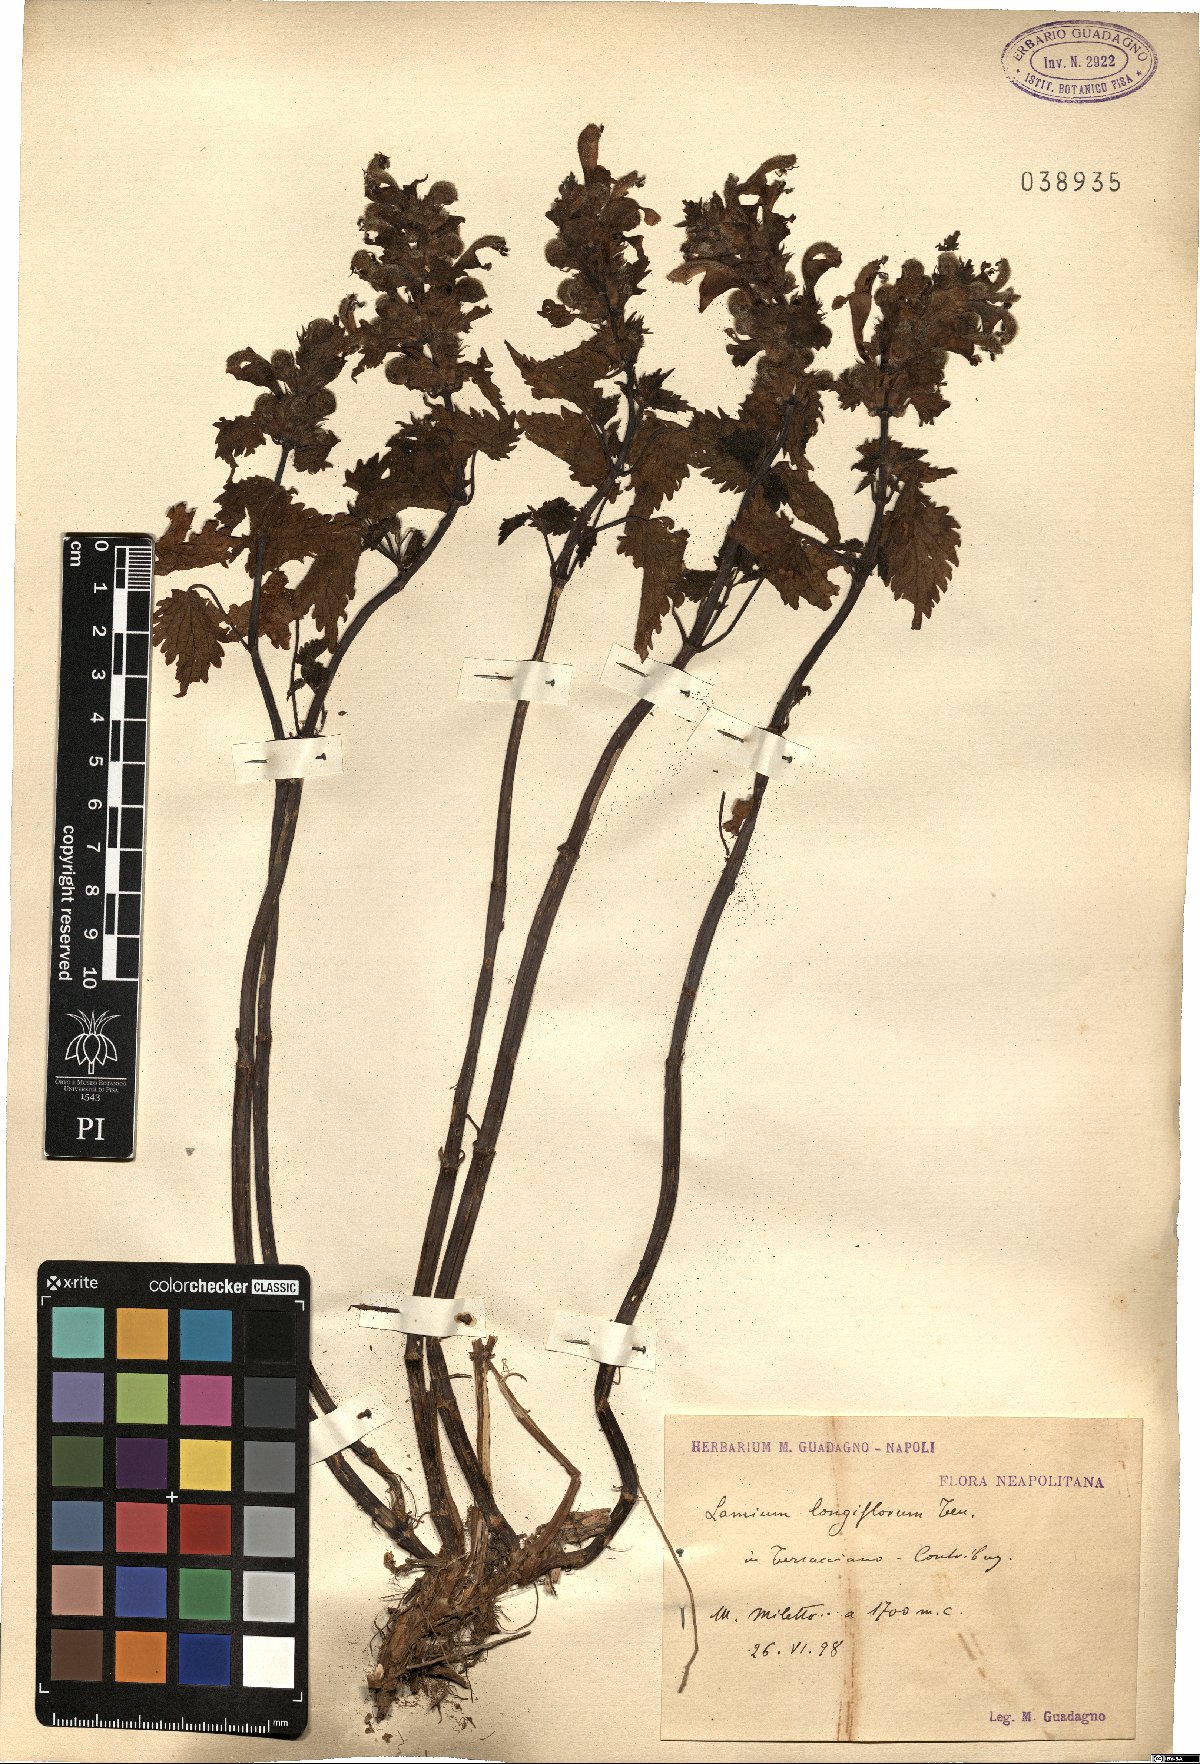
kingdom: Plantae
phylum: Tracheophyta
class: Magnoliopsida
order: Lamiales
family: Lamiaceae
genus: Lamium
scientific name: Lamium garganicum
